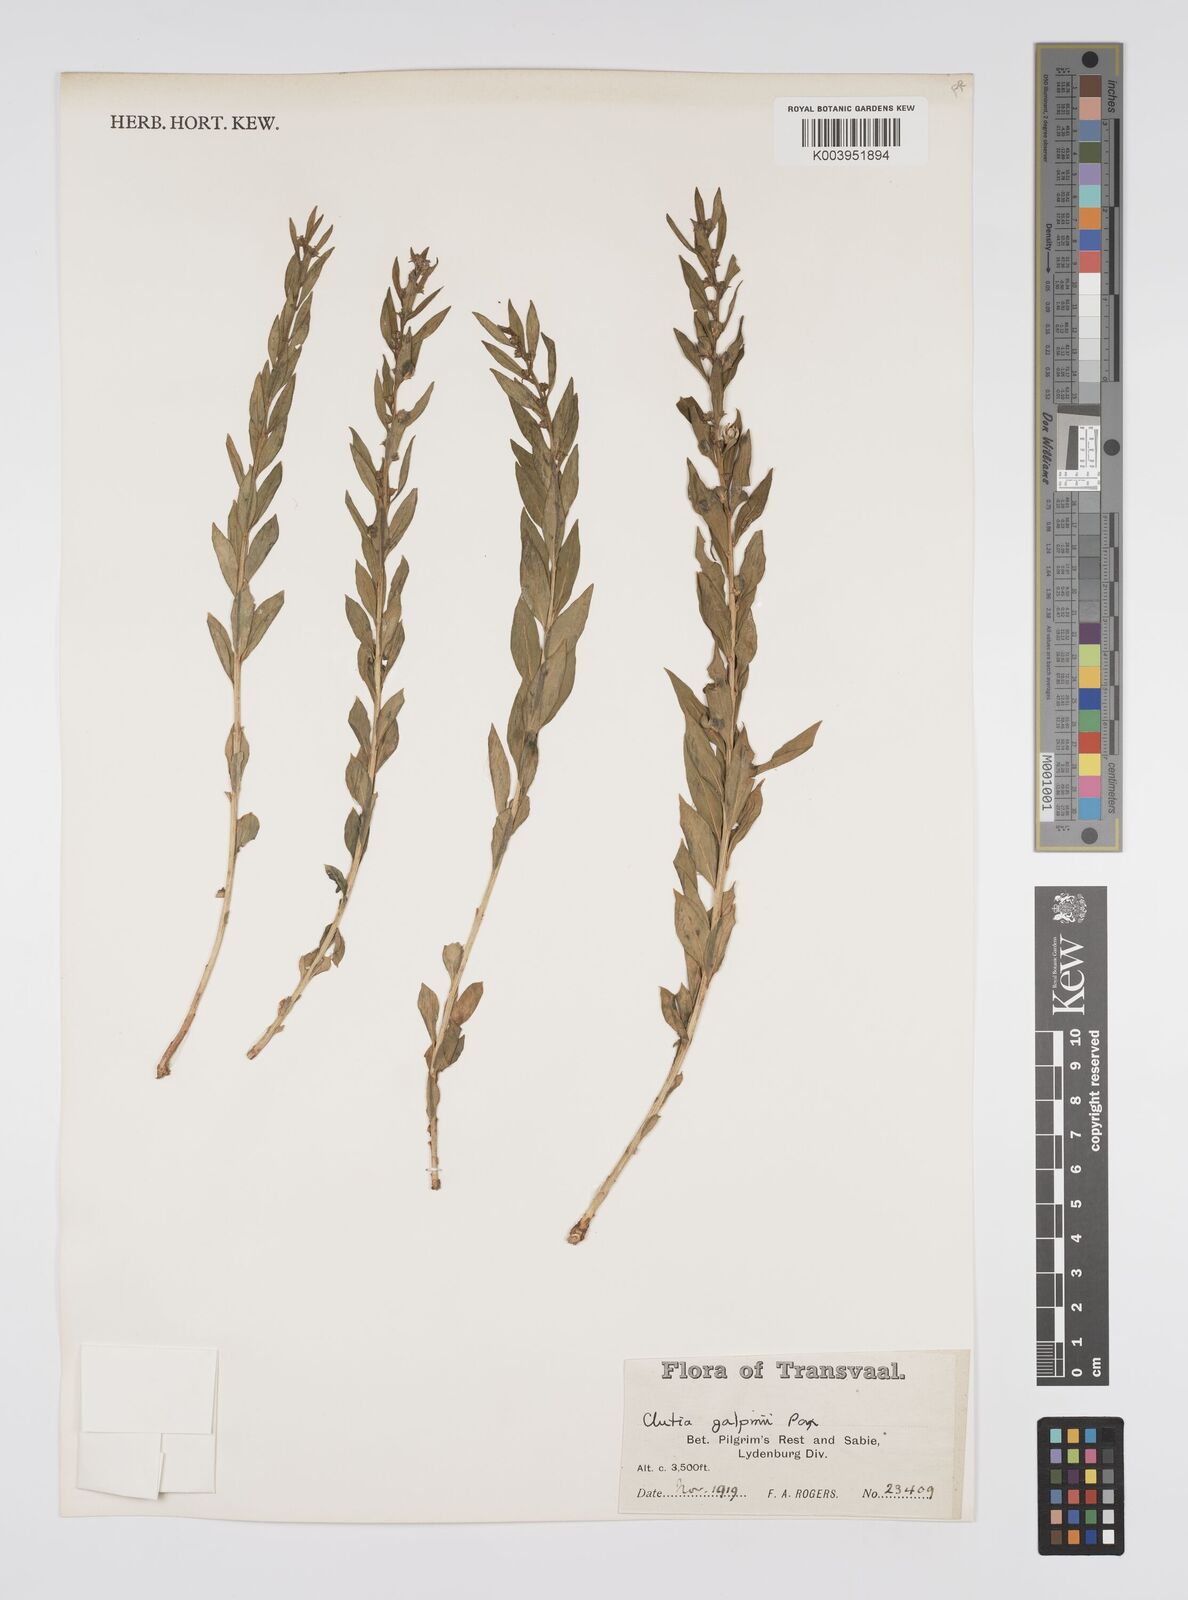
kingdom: Plantae
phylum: Tracheophyta
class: Magnoliopsida
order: Malpighiales
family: Peraceae
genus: Clutia
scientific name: Clutia galpinii
